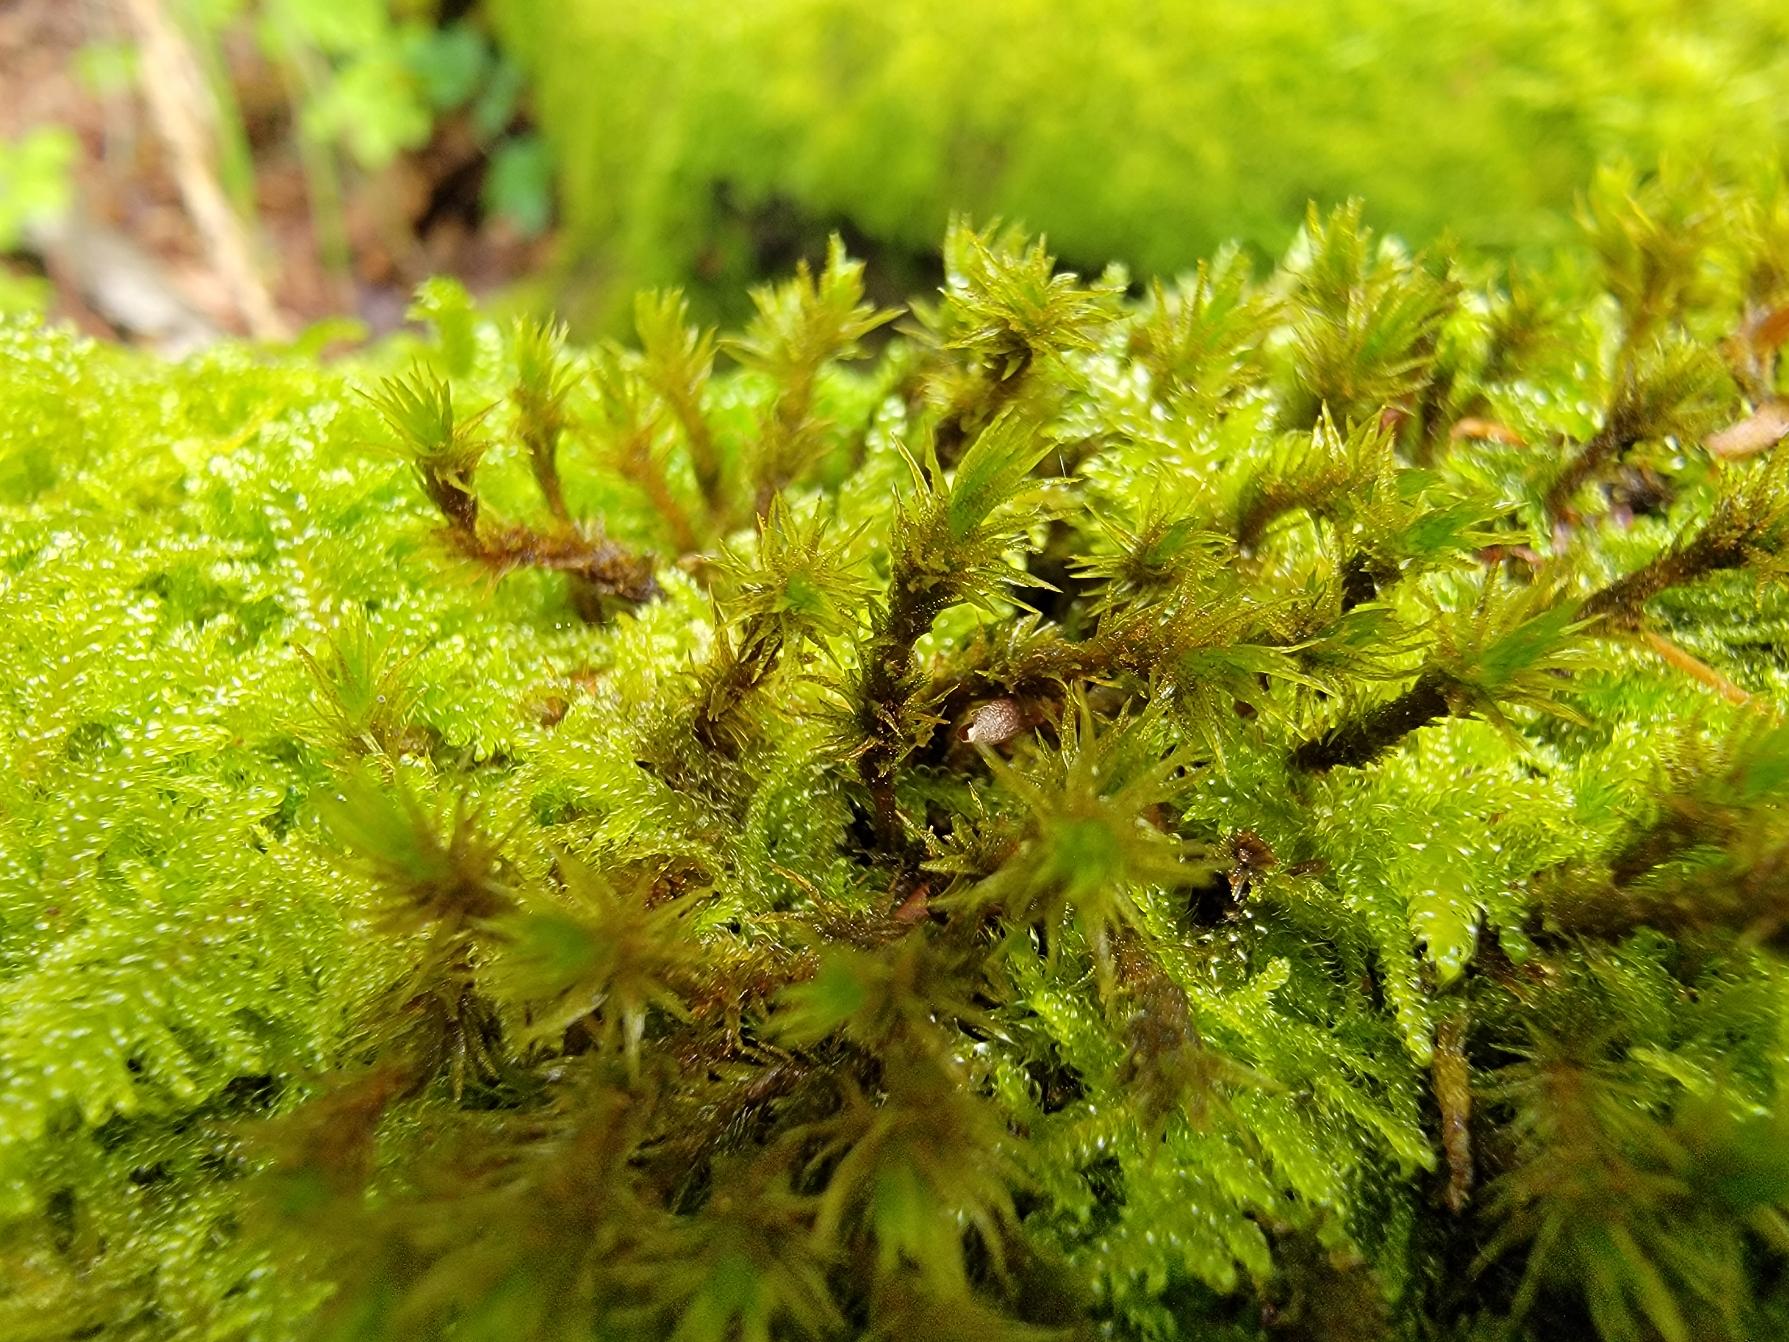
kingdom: Plantae
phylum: Bryophyta
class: Bryopsida
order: Orthotrichales
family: Orthotrichaceae
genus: Pulvigera
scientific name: Pulvigera lyellii
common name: Stor furehætte
